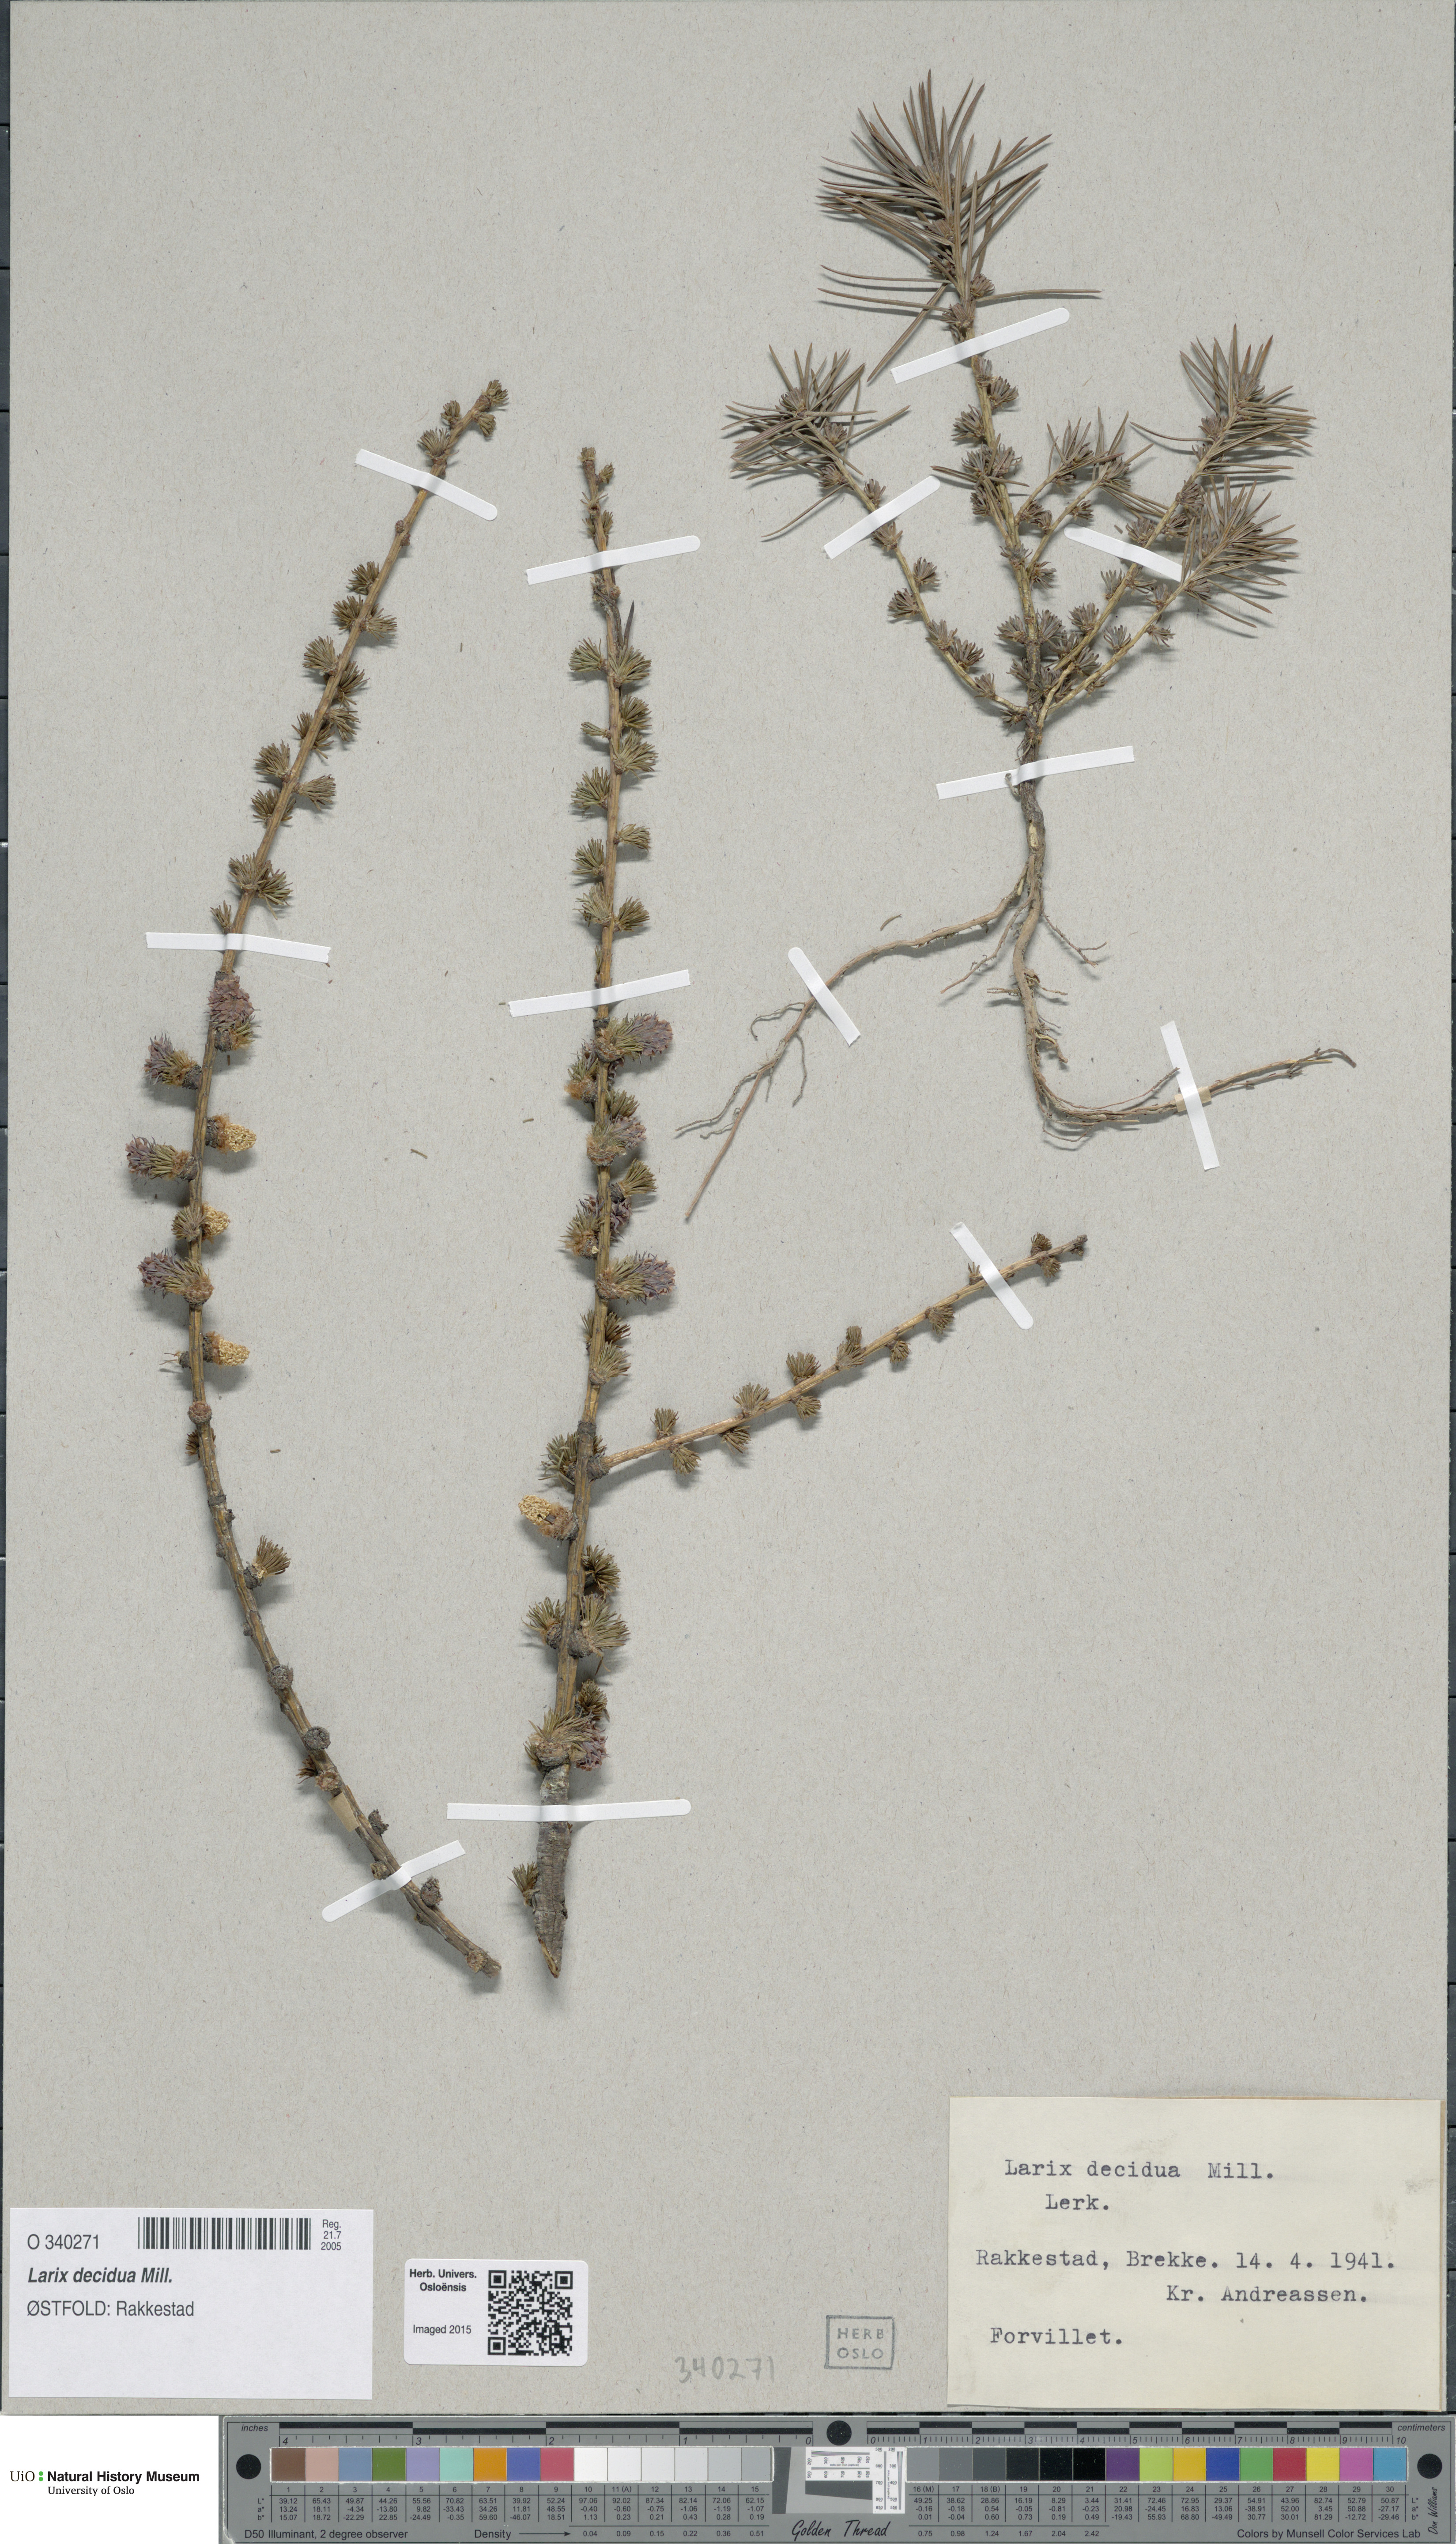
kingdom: Plantae
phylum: Tracheophyta
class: Pinopsida
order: Pinales
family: Pinaceae
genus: Larix
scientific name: Larix decidua
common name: European larch
